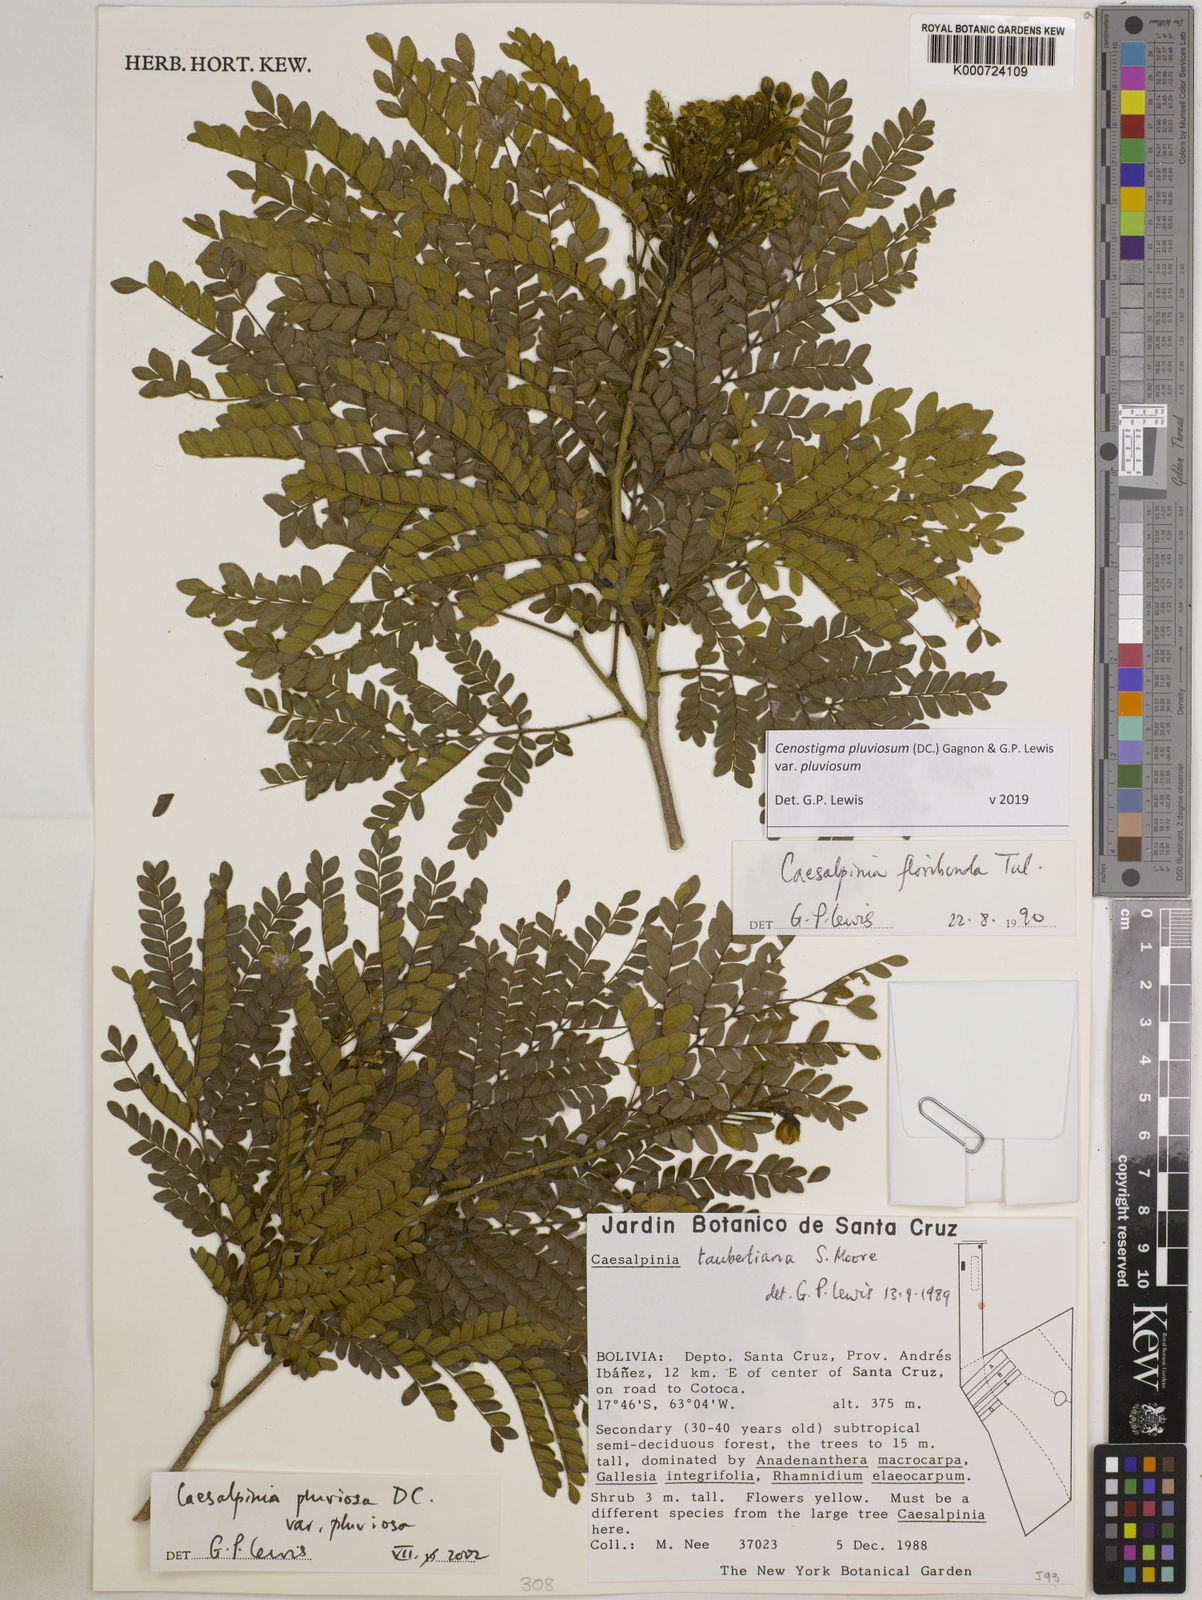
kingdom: Plantae
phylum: Tracheophyta
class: Magnoliopsida
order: Fabales
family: Fabaceae
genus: Cenostigma
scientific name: Cenostigma pluviosum
